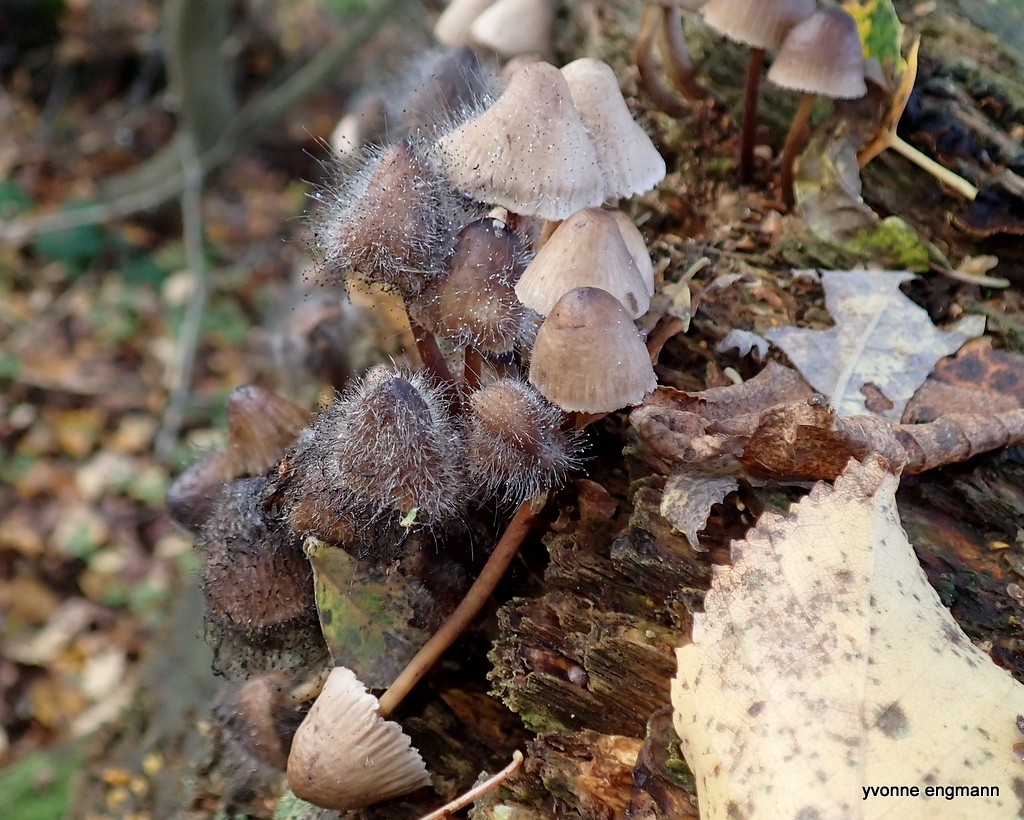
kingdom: Fungi
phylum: Mucoromycota
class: Mucoromycetes
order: Mucorales
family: Phycomycetaceae
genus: Spinellus
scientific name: Spinellus fusiger
